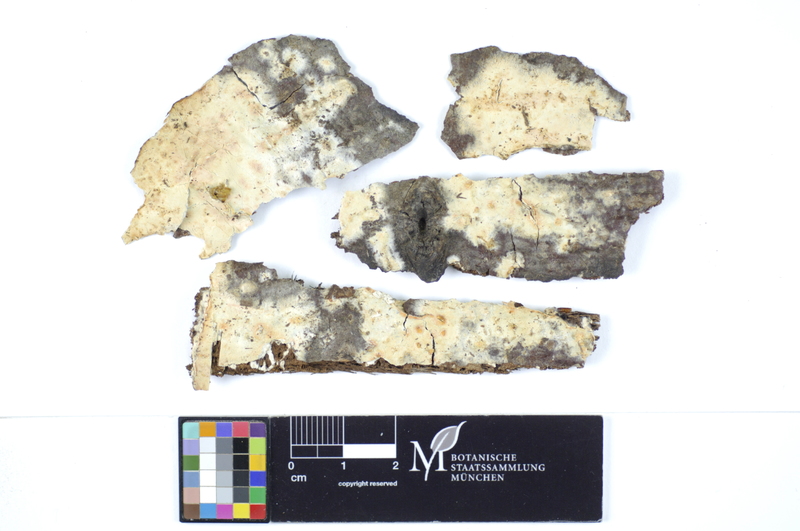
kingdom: Plantae
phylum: Tracheophyta
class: Magnoliopsida
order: Malvales
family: Malvaceae
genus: Tilia
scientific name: Tilia cordata
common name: Small-leaved lime
